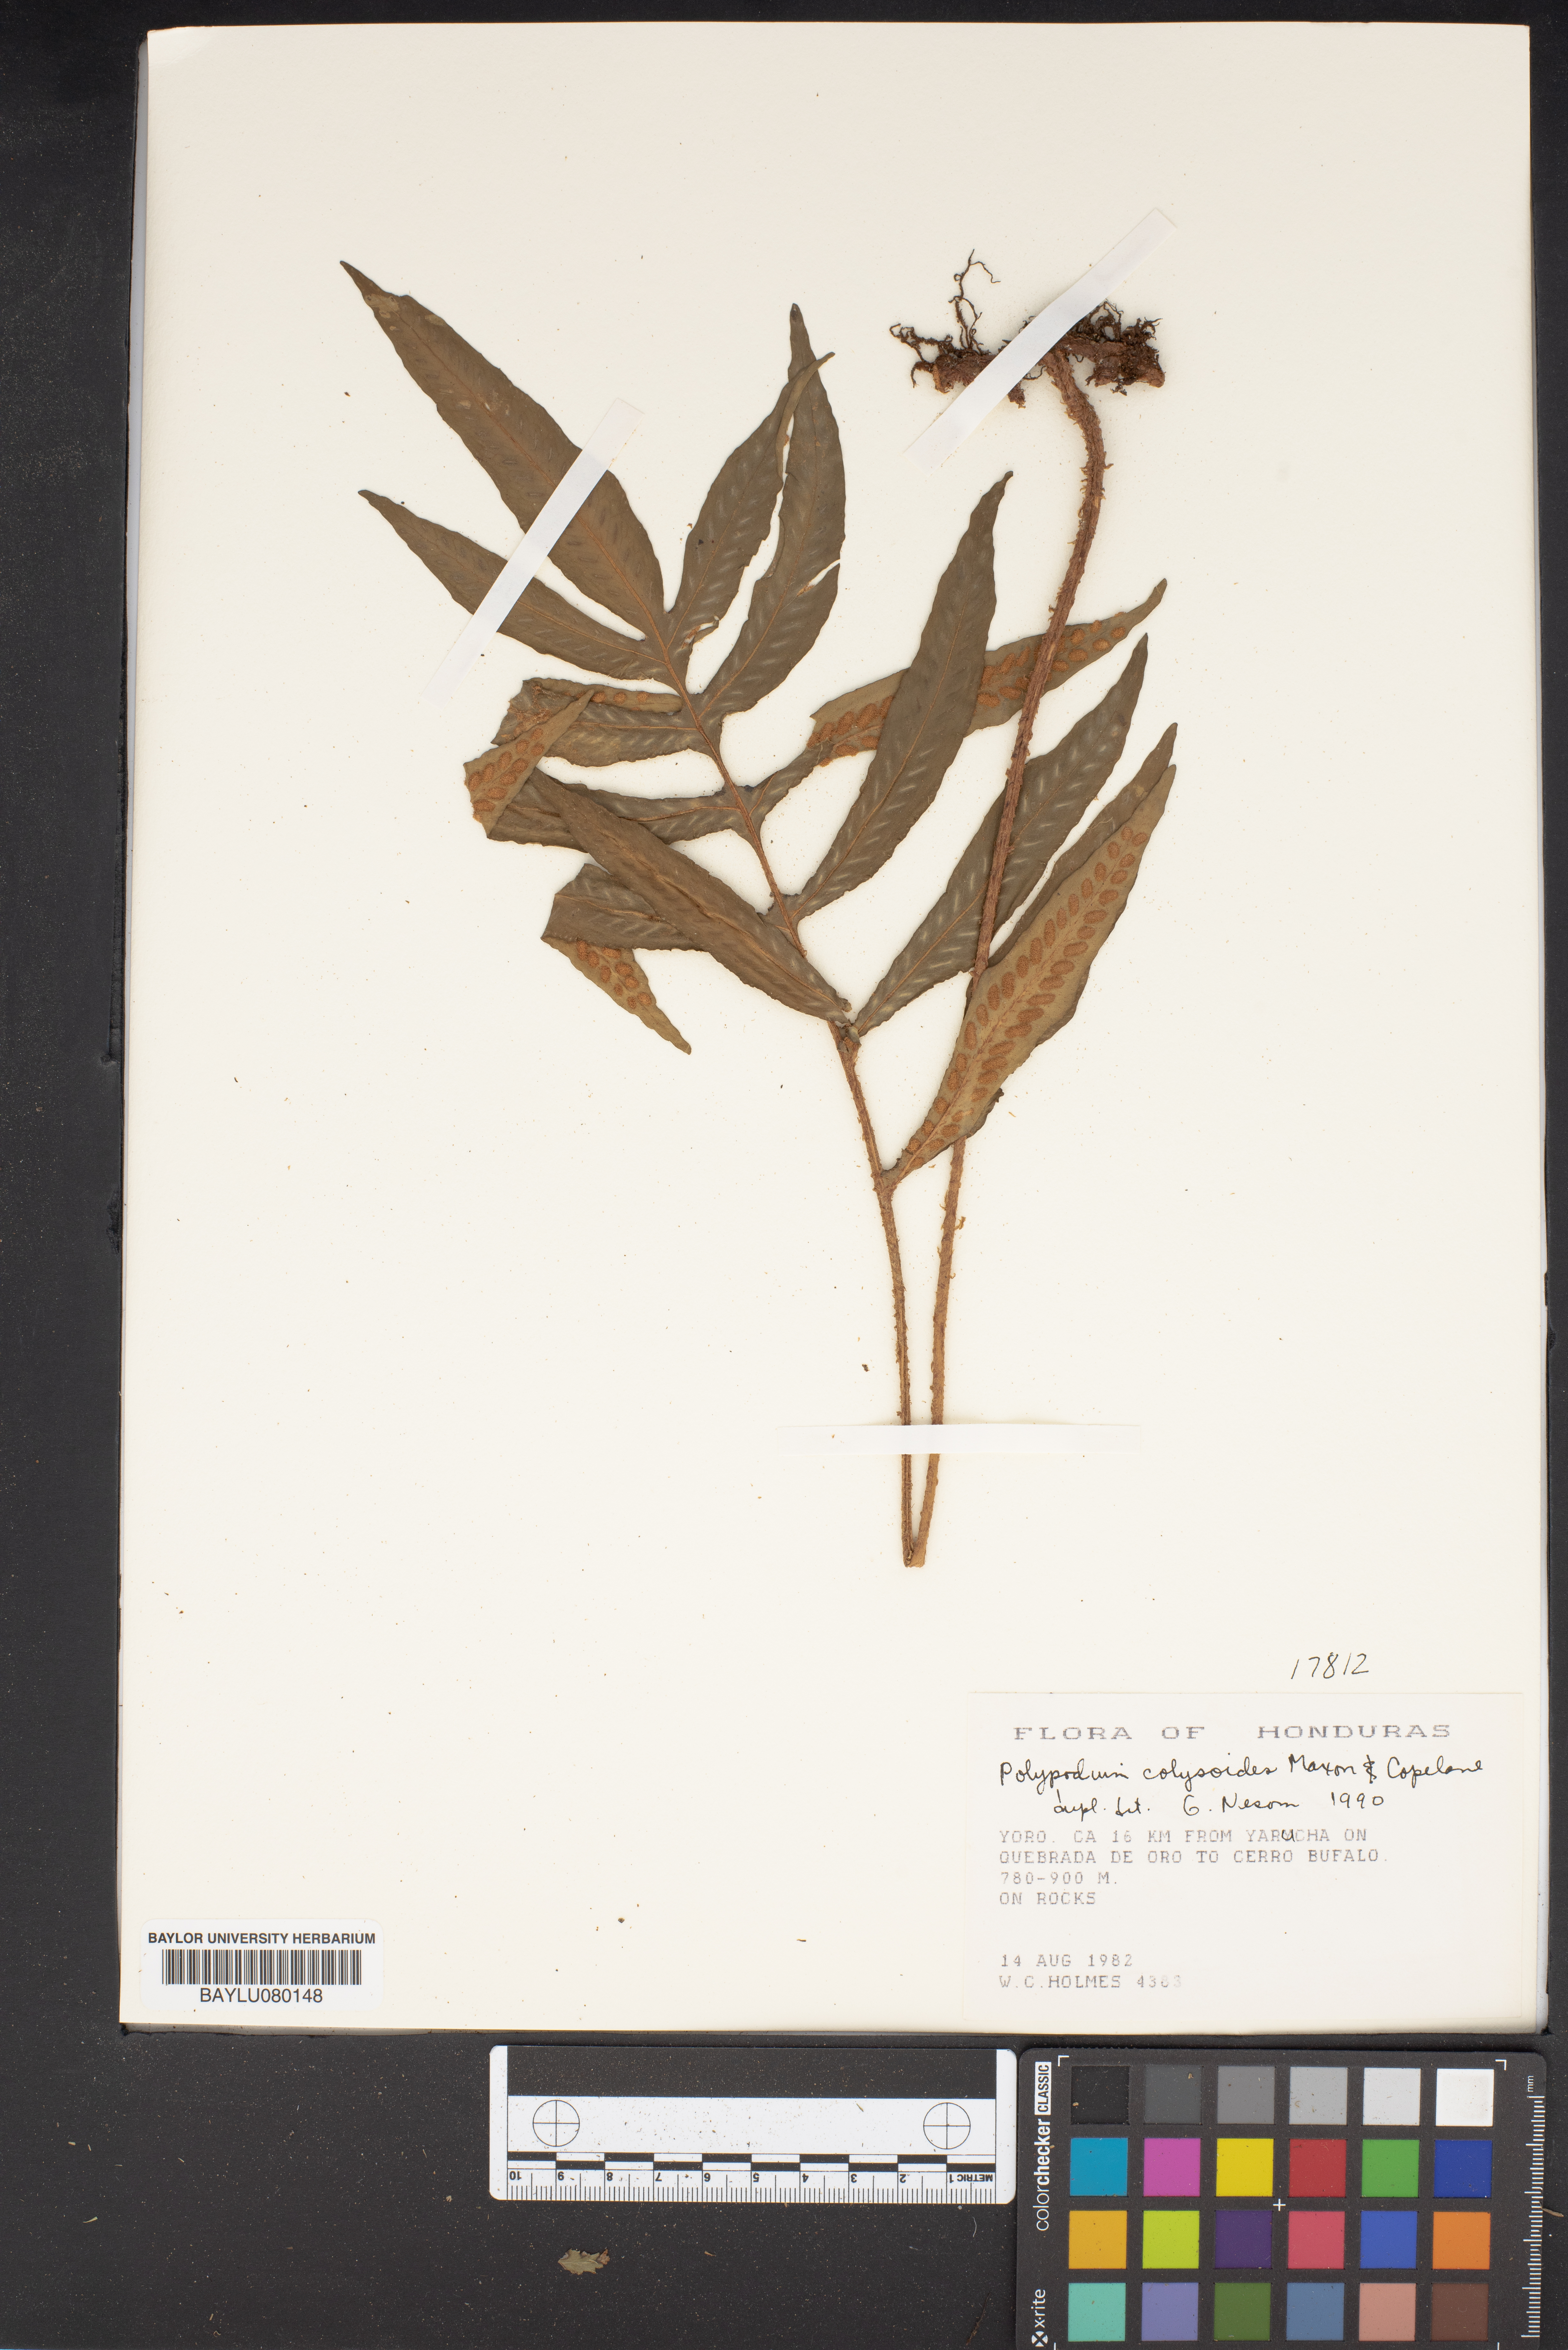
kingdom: Plantae
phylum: Tracheophyta
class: Polypodiopsida
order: Polypodiales
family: Polypodiaceae
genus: Pleopeltis
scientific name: Pleopeltis bradeorum
